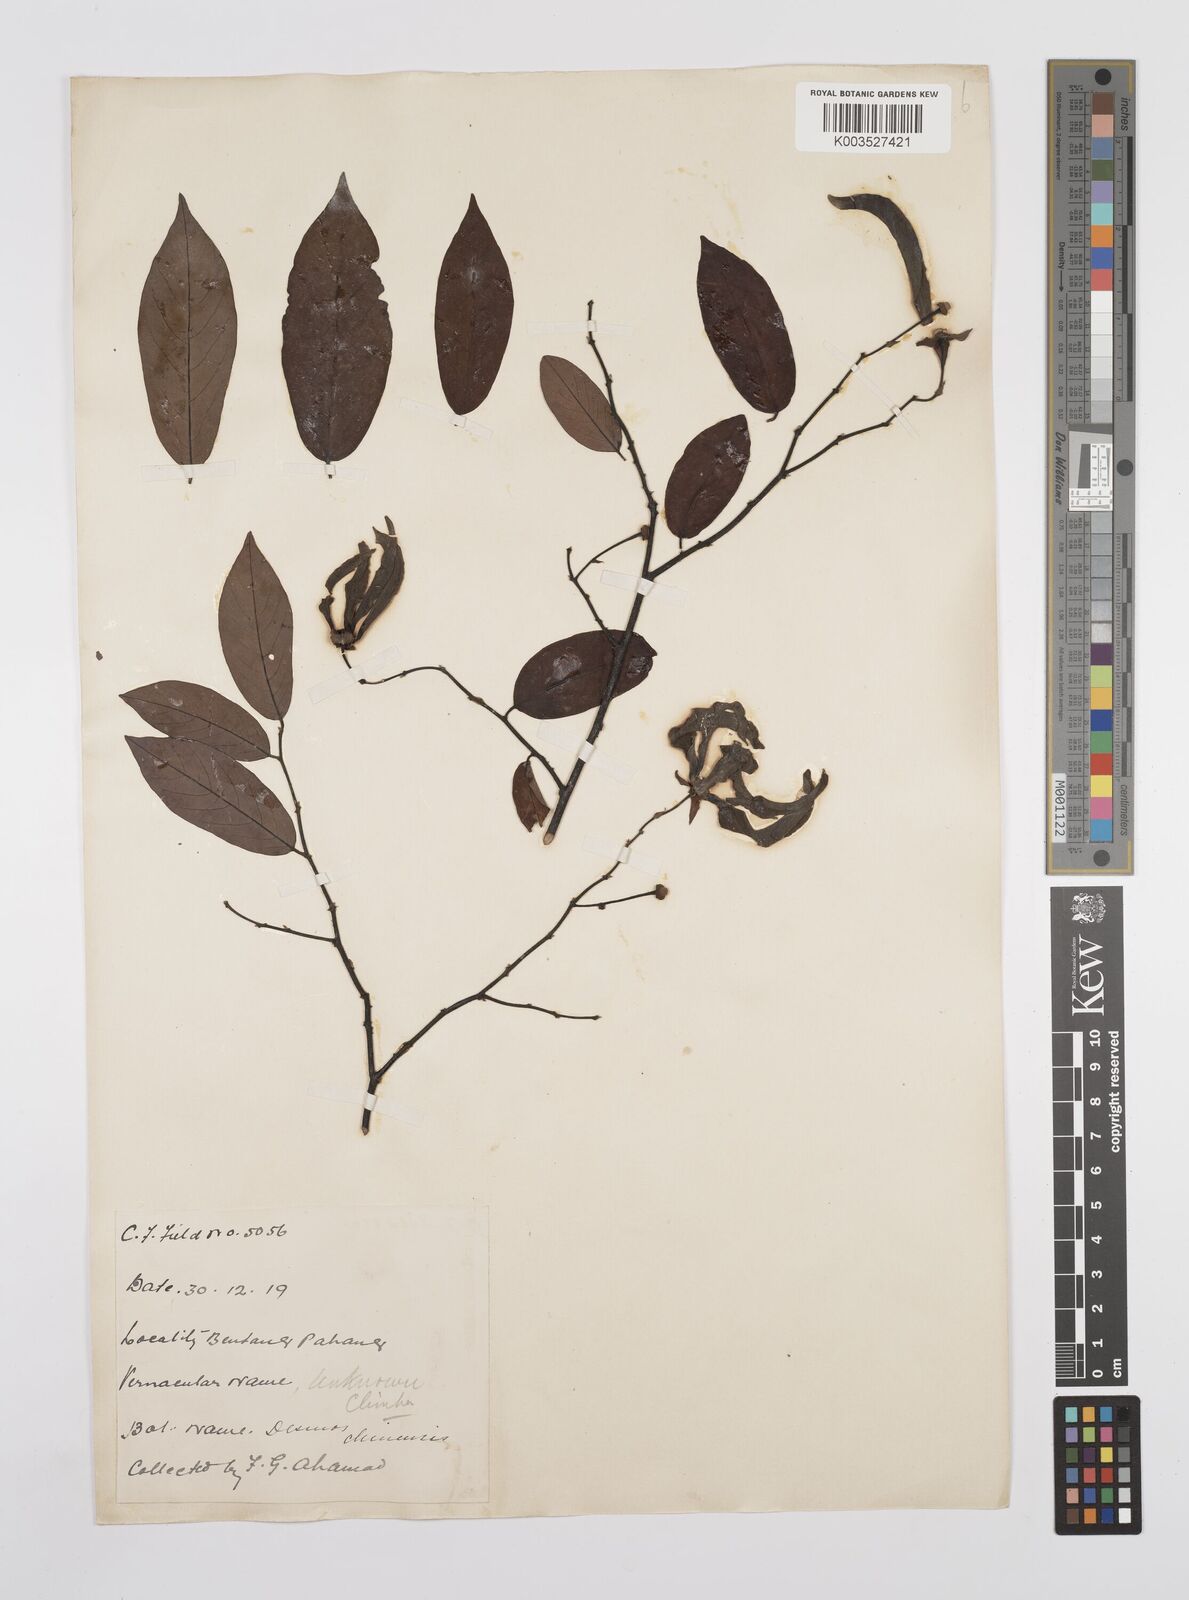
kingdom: Plantae
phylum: Tracheophyta
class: Magnoliopsida
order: Magnoliales
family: Annonaceae
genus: Desmos
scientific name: Desmos chinensis
